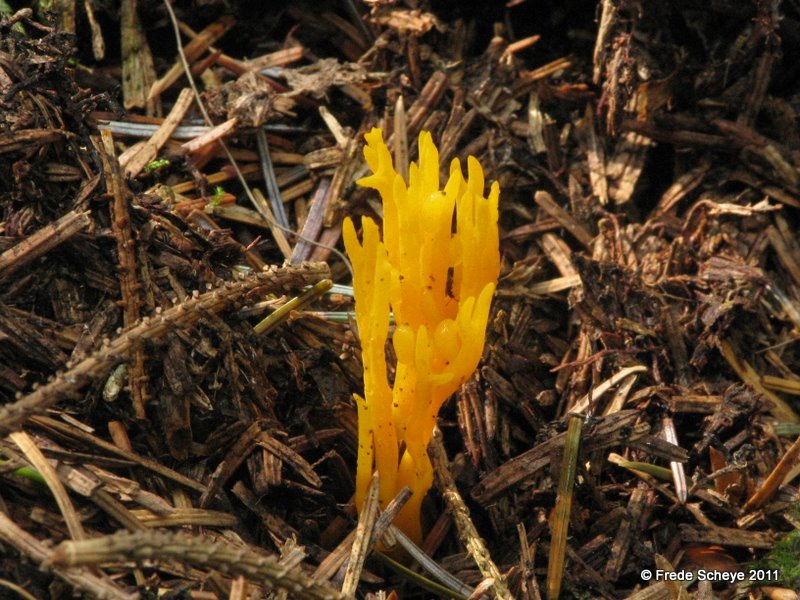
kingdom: Fungi
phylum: Basidiomycota
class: Dacrymycetes
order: Dacrymycetales
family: Dacrymycetaceae
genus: Calocera
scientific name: Calocera viscosa
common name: almindelig guldgaffel
